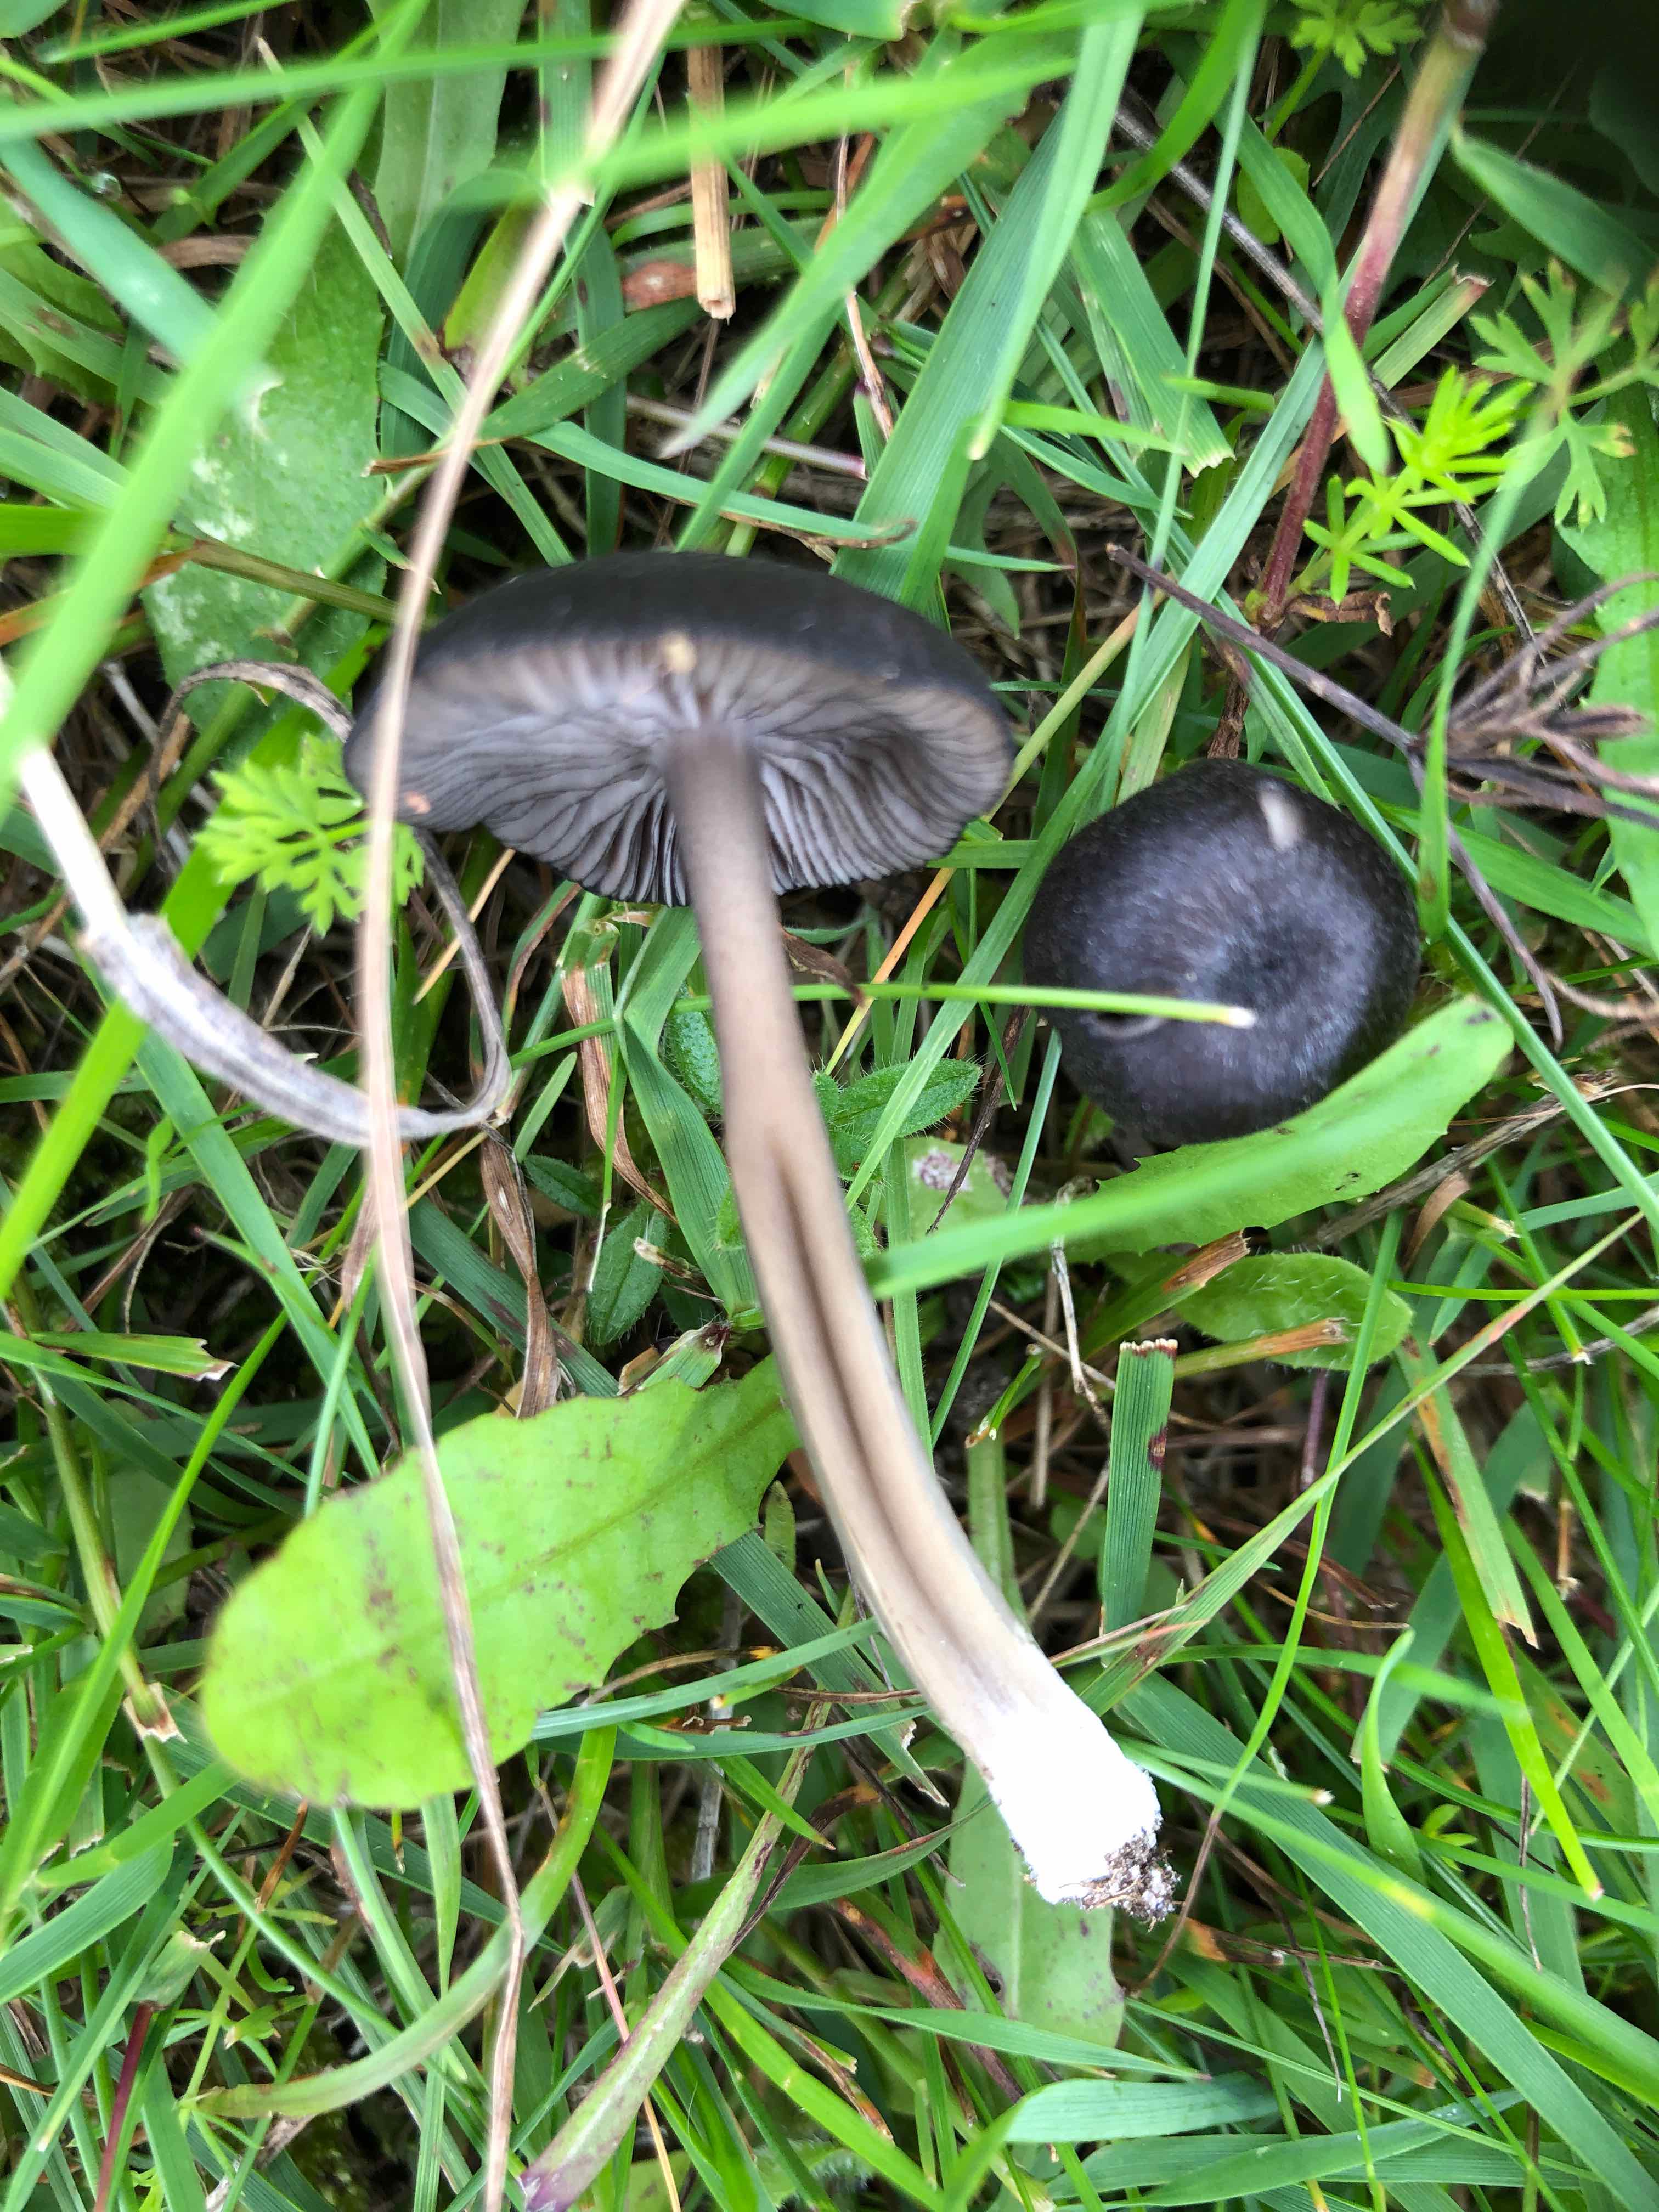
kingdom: Fungi
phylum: Basidiomycota
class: Agaricomycetes
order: Agaricales
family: Entolomataceae
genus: Entoloma
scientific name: Entoloma serrulatum
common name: savbladet rødblad
